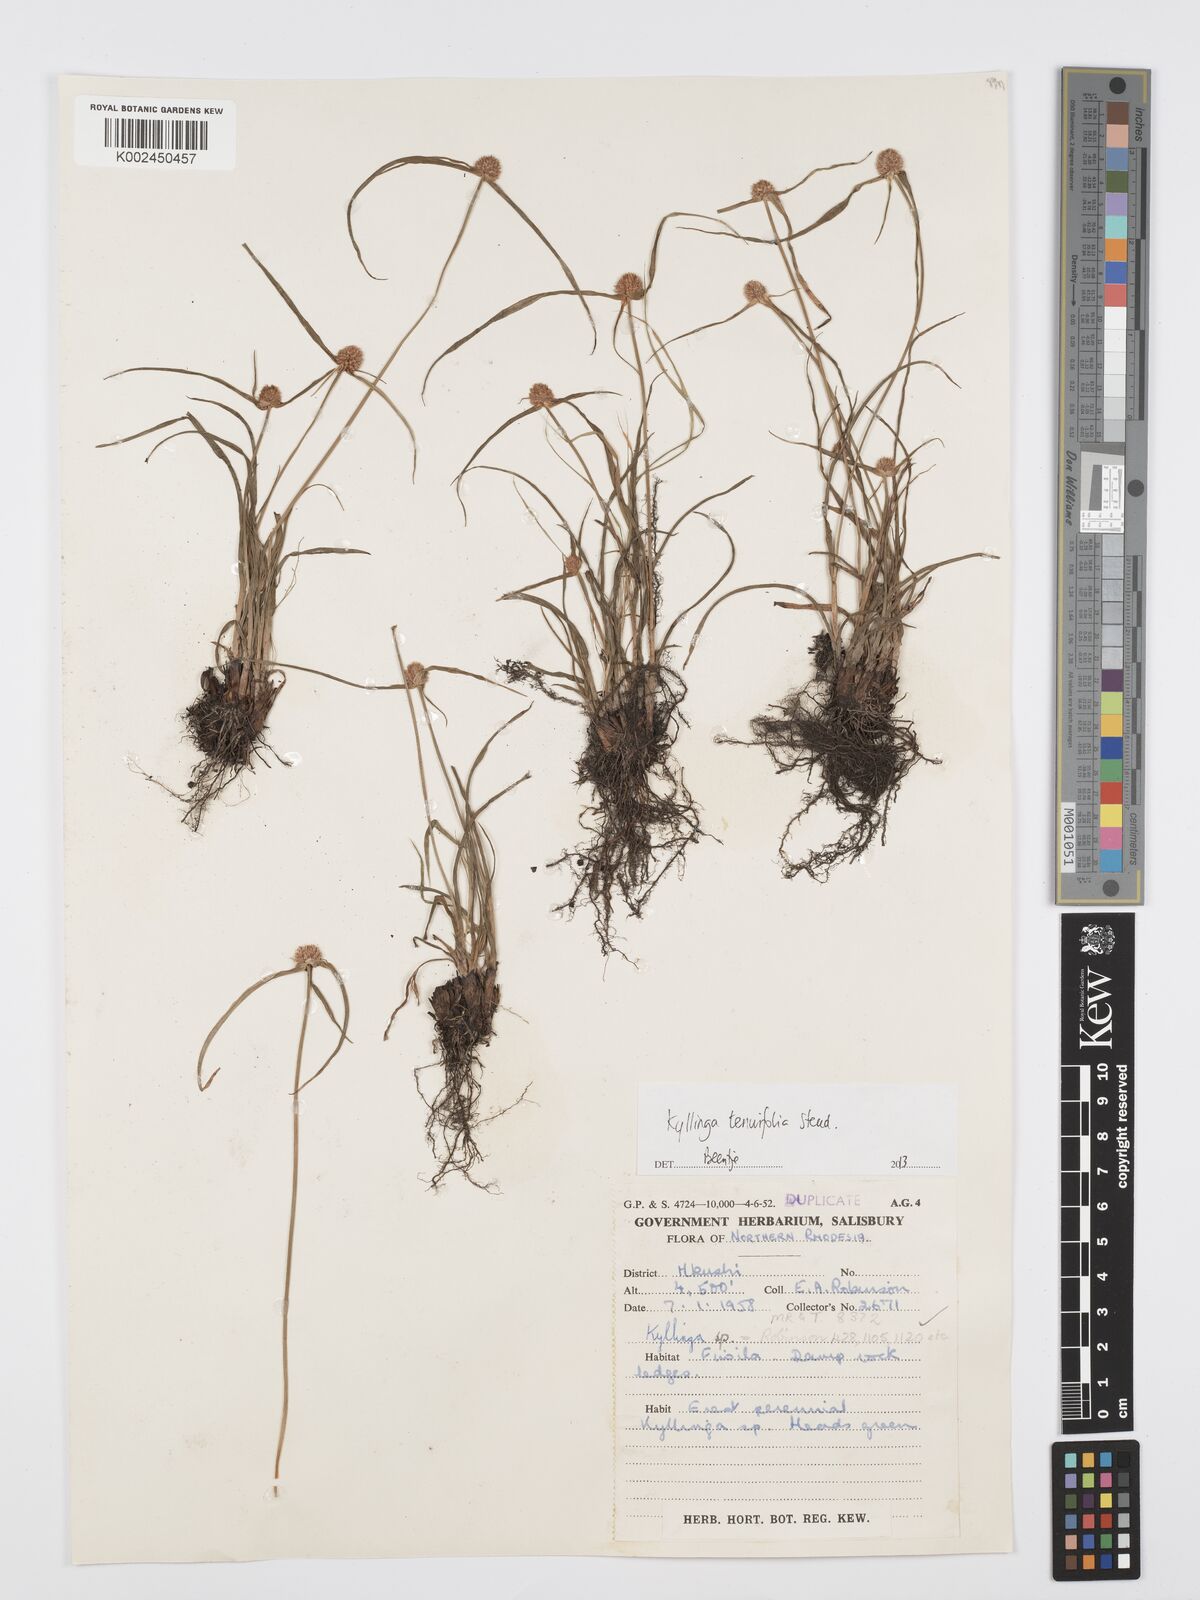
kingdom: Plantae
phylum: Tracheophyta
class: Liliopsida
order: Poales
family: Cyperaceae
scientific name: Cyperaceae
